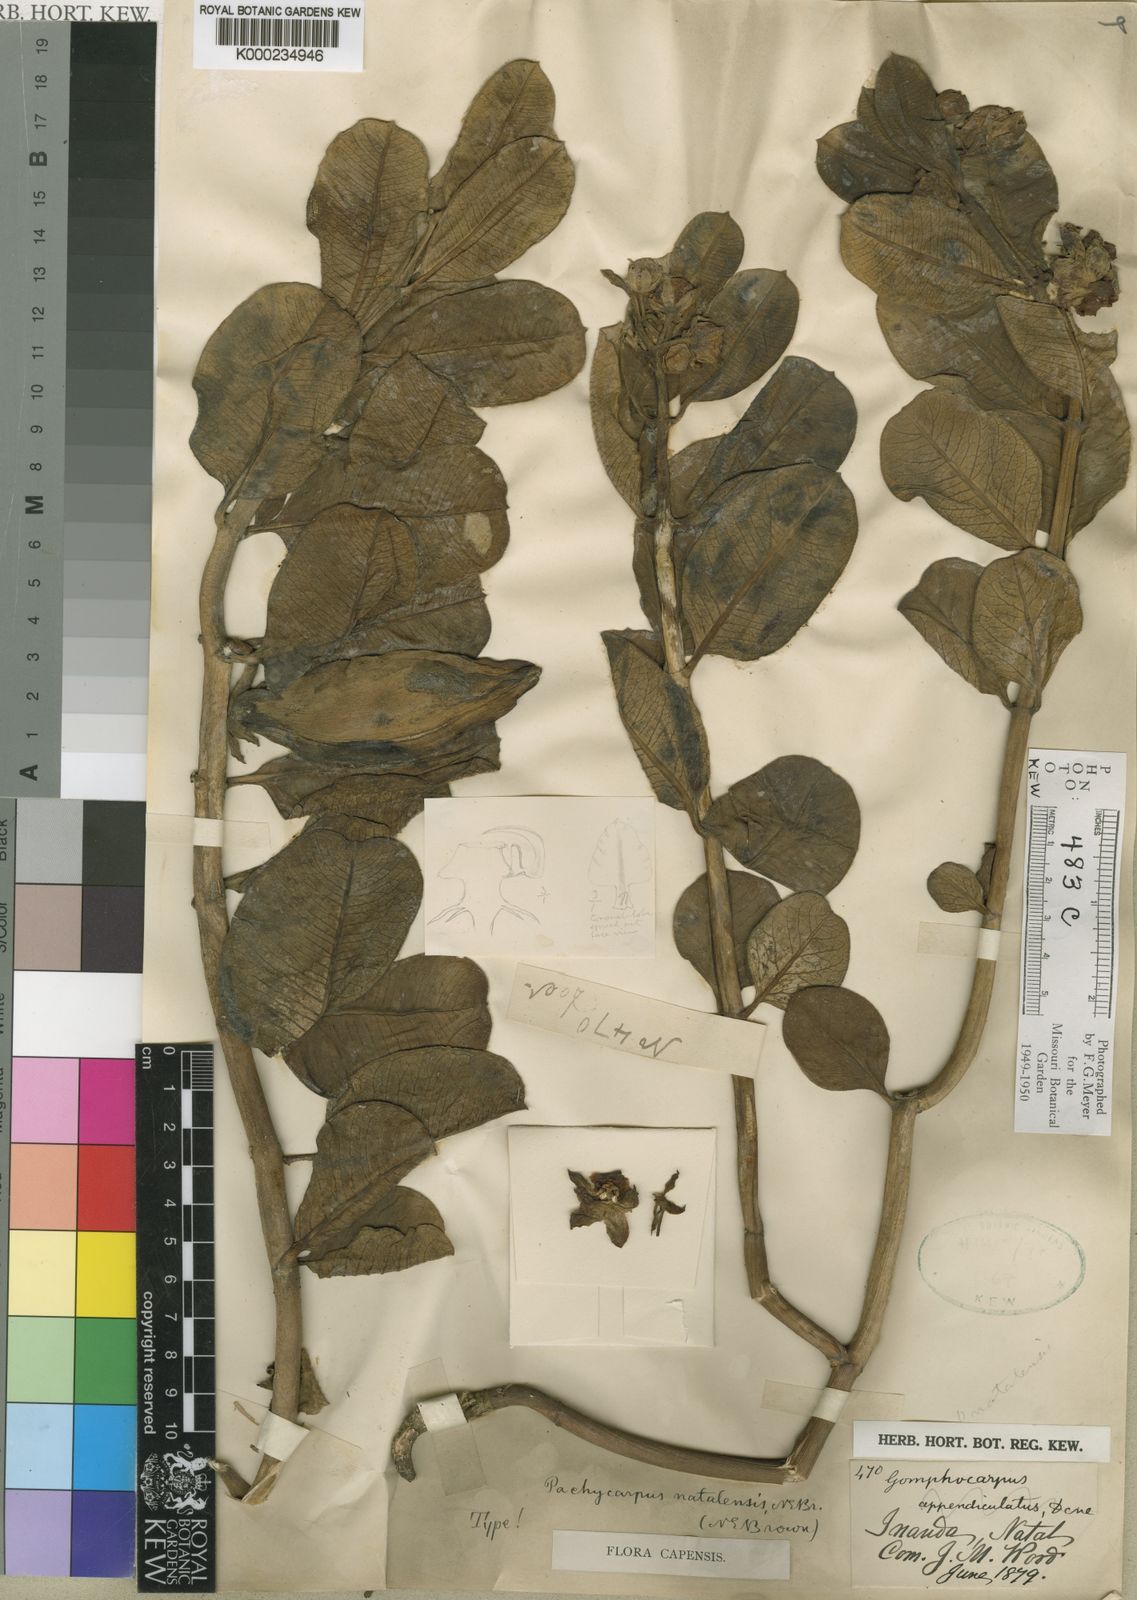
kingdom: Plantae
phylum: Tracheophyta
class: Magnoliopsida
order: Gentianales
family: Apocynaceae
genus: Pachycarpus
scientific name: Pachycarpus natalensis
